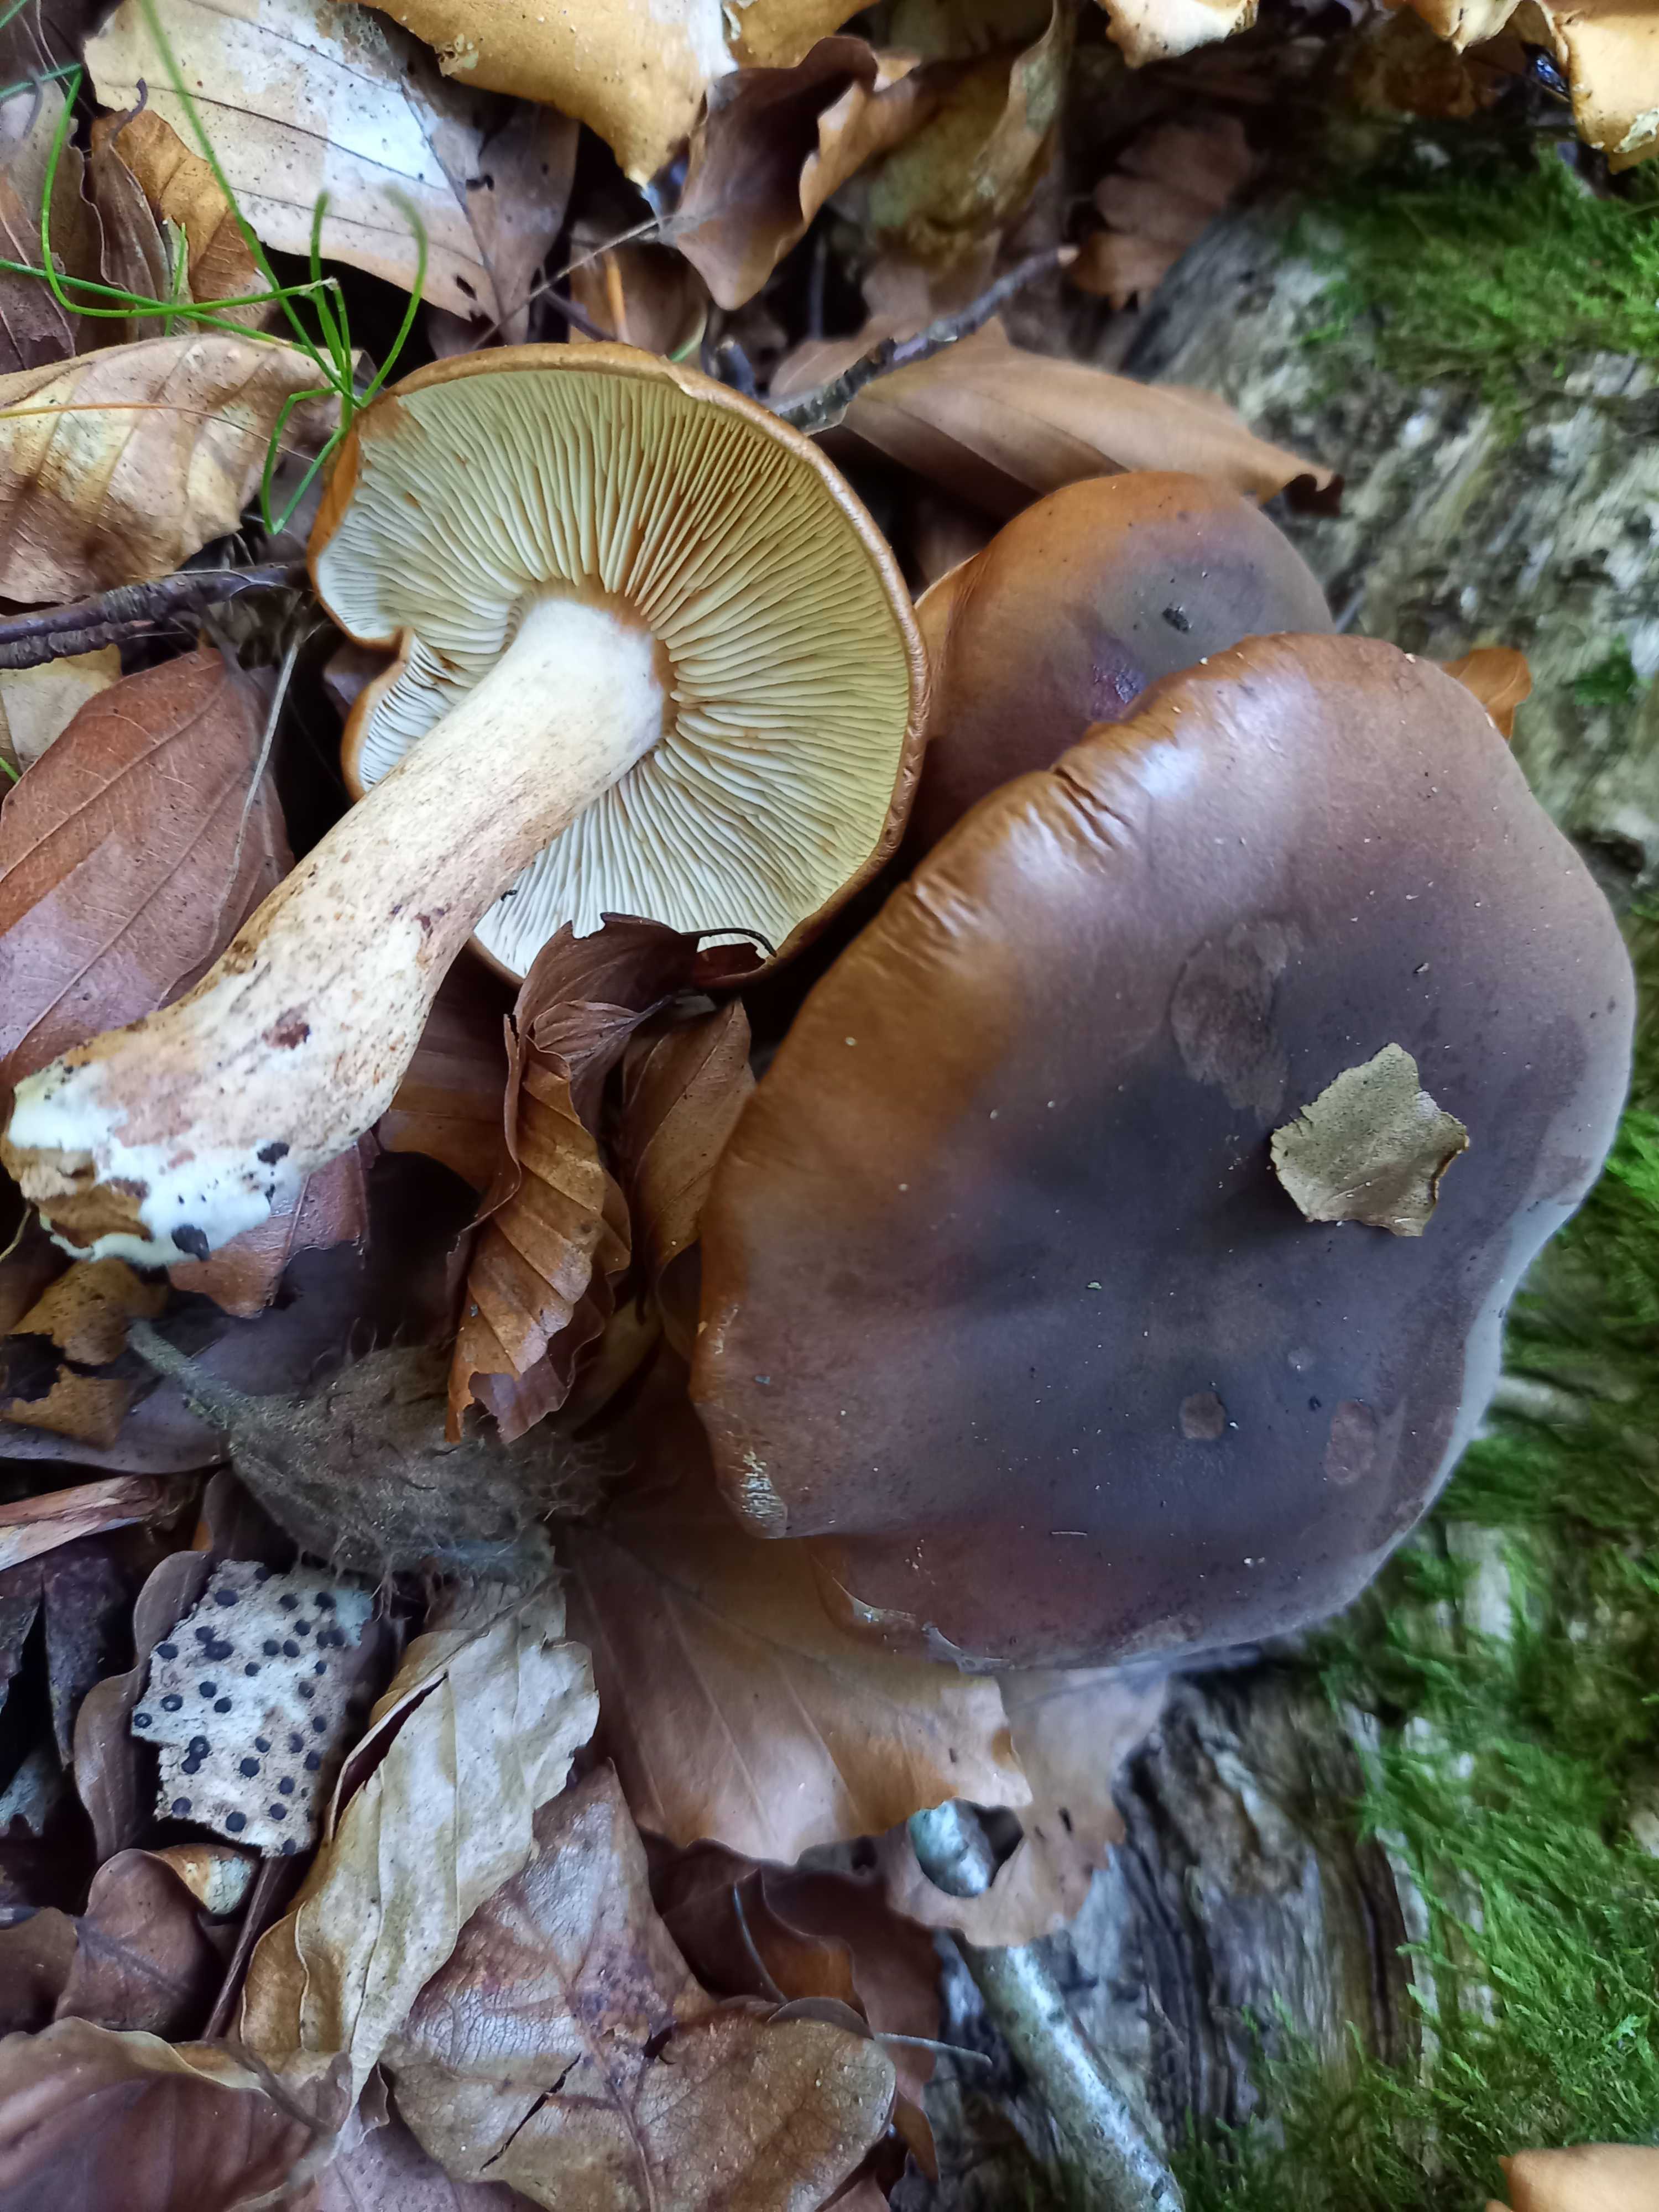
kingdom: Fungi
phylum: Basidiomycota
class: Agaricomycetes
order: Agaricales
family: Tricholomataceae
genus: Tricholoma
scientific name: Tricholoma ustale
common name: sveden ridderhat
